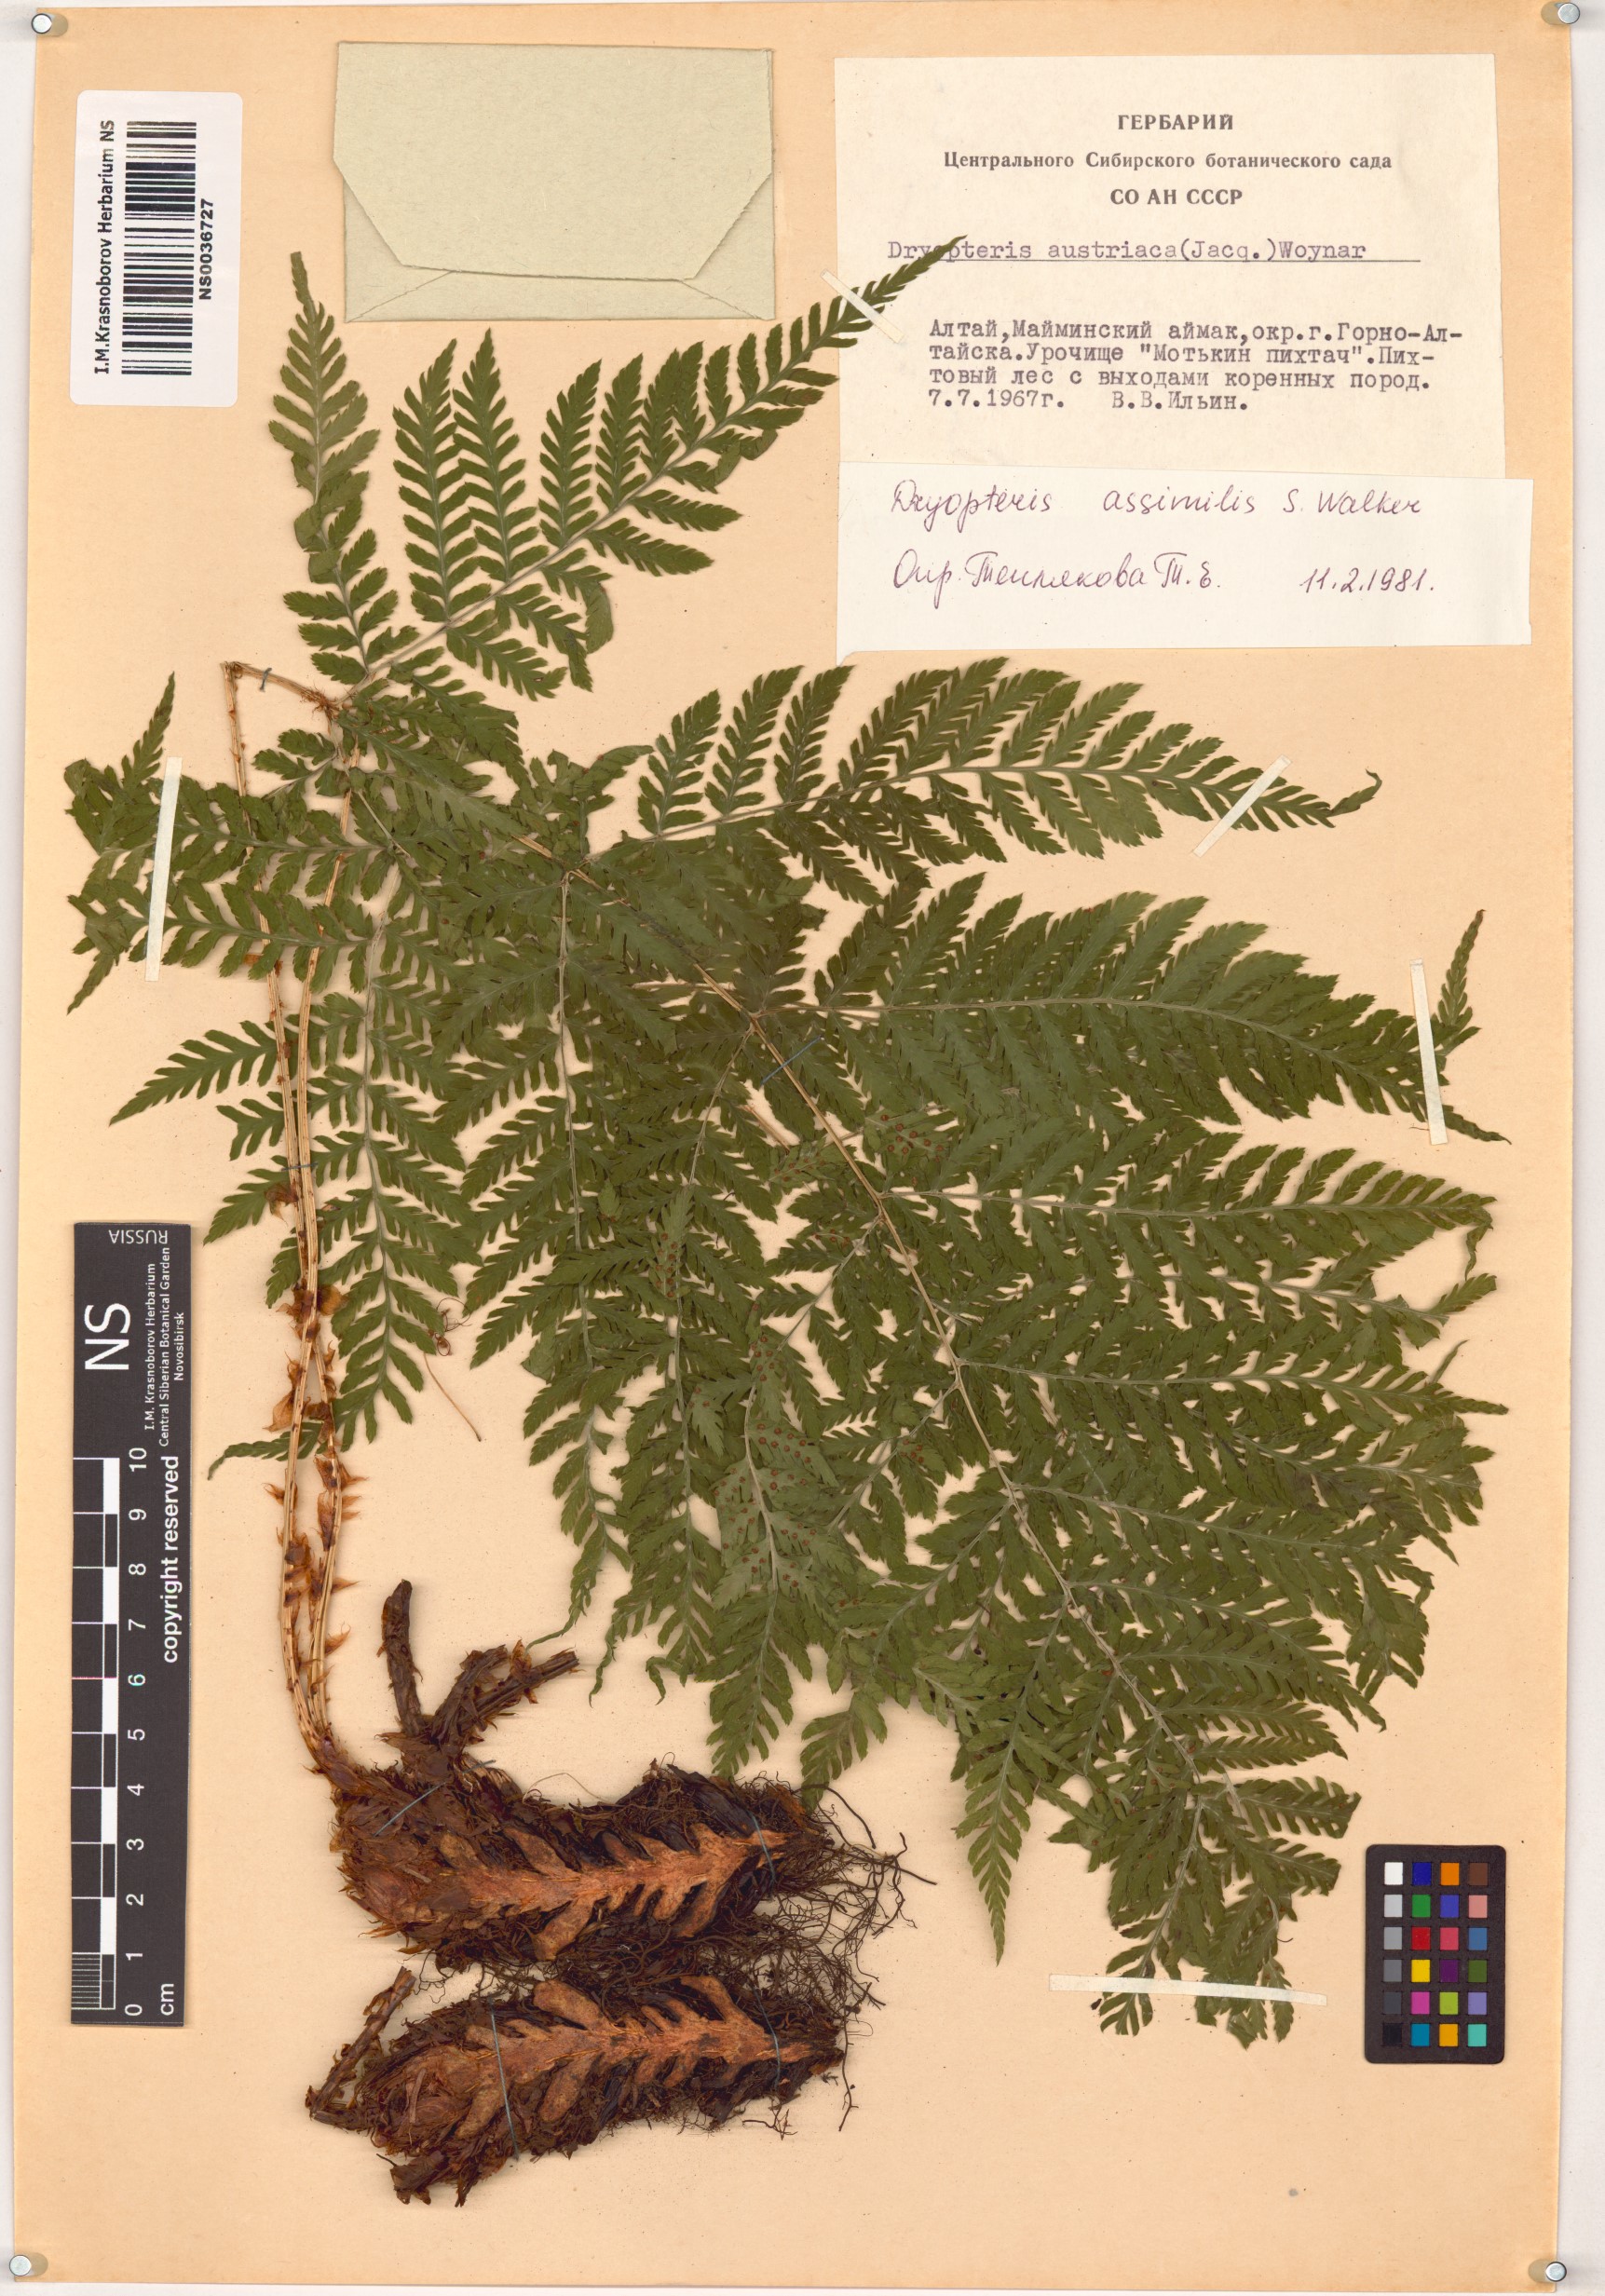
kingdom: Plantae
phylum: Tracheophyta
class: Polypodiopsida
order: Polypodiales
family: Dryopteridaceae
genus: Dryopteris
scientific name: Dryopteris expansa
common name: Northern buckler fern
